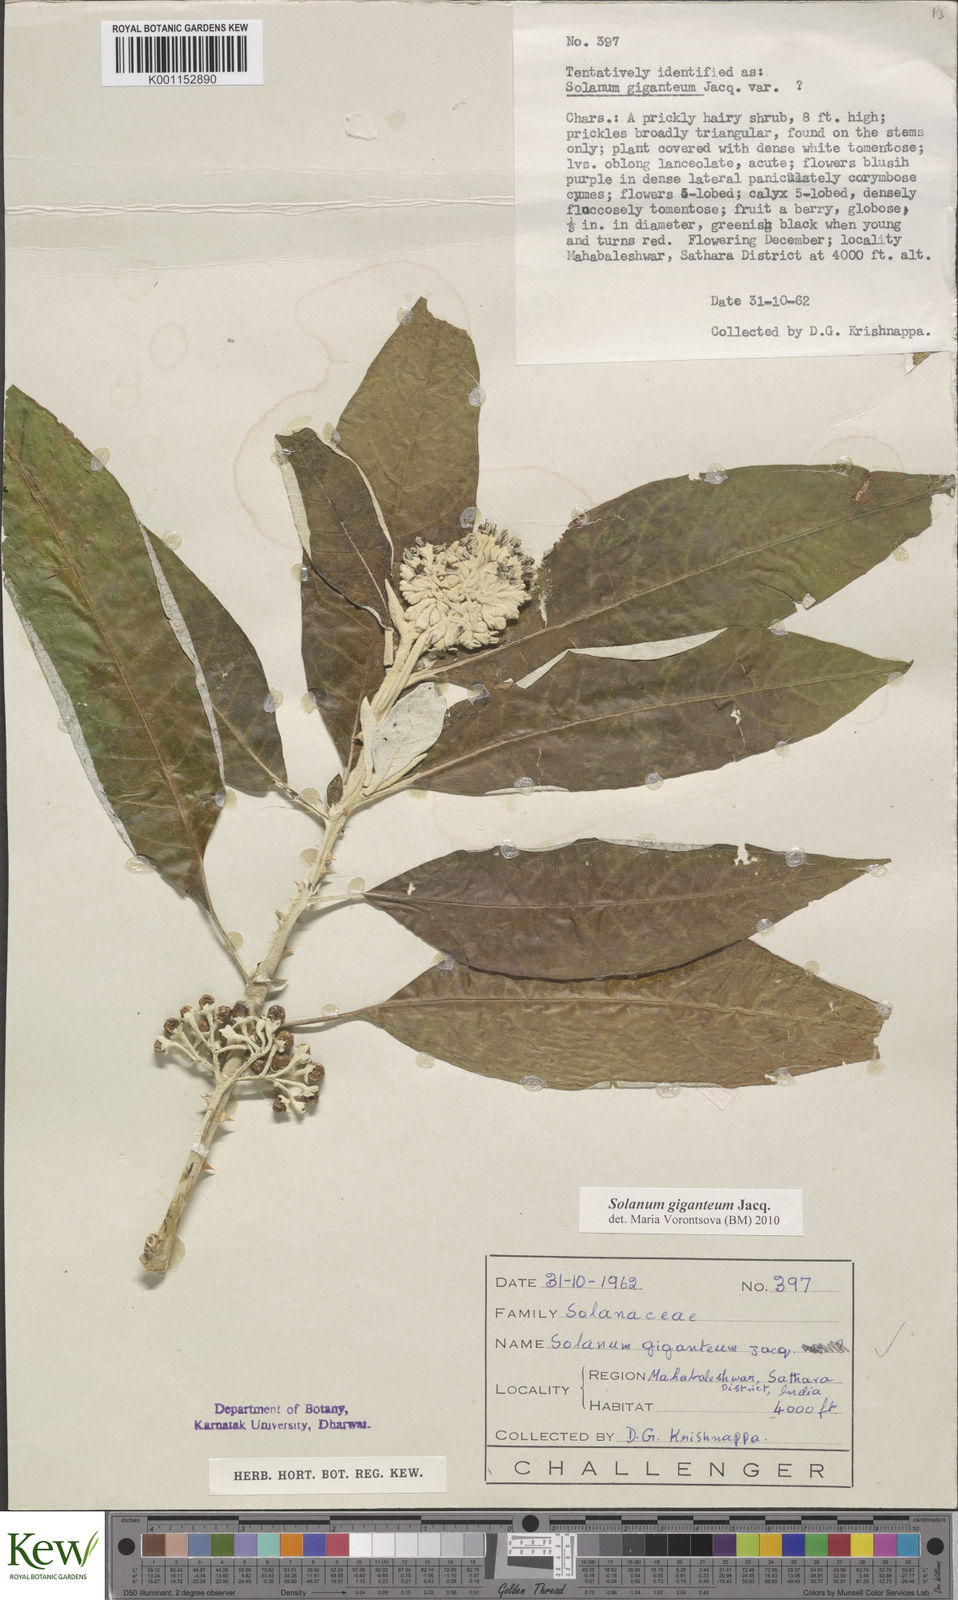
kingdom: Plantae
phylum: Tracheophyta
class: Magnoliopsida
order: Solanales
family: Solanaceae
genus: Solanum
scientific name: Solanum giganteum
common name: Healing-leaf-tree
